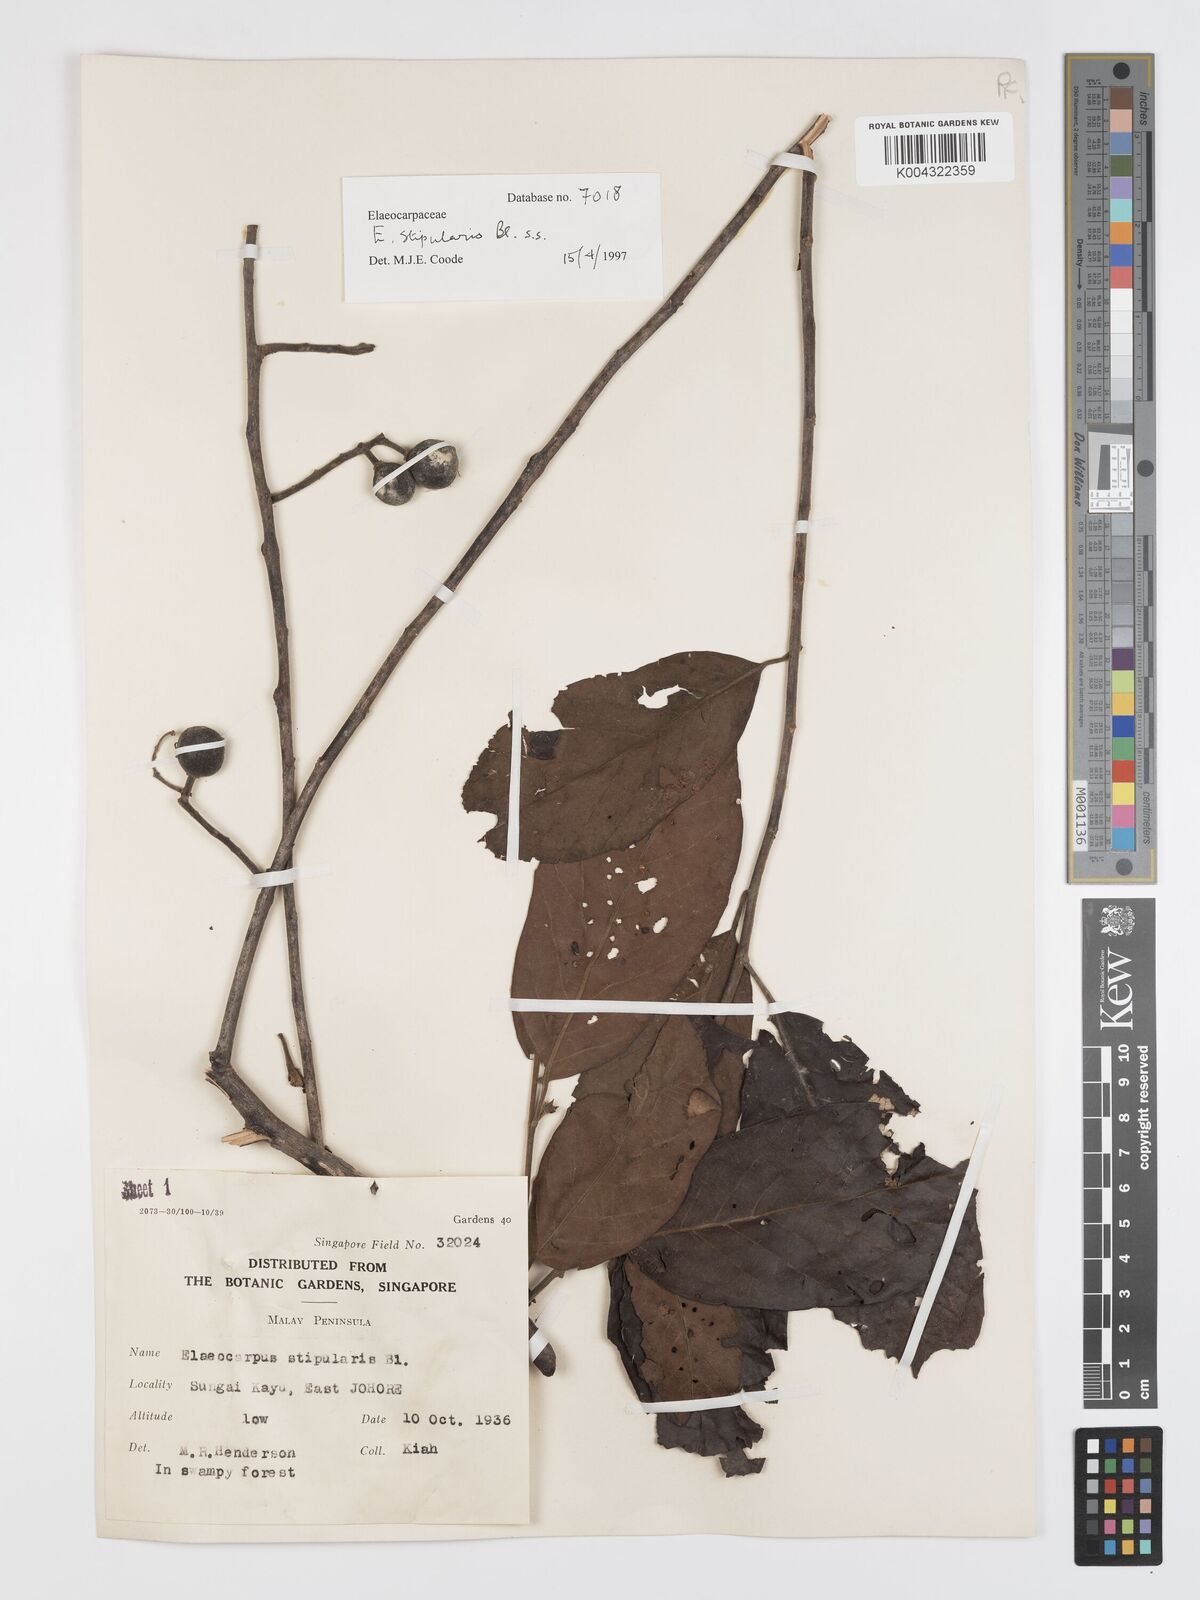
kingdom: Plantae
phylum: Tracheophyta
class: Magnoliopsida
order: Oxalidales
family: Elaeocarpaceae
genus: Elaeocarpus
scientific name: Elaeocarpus stipularis
